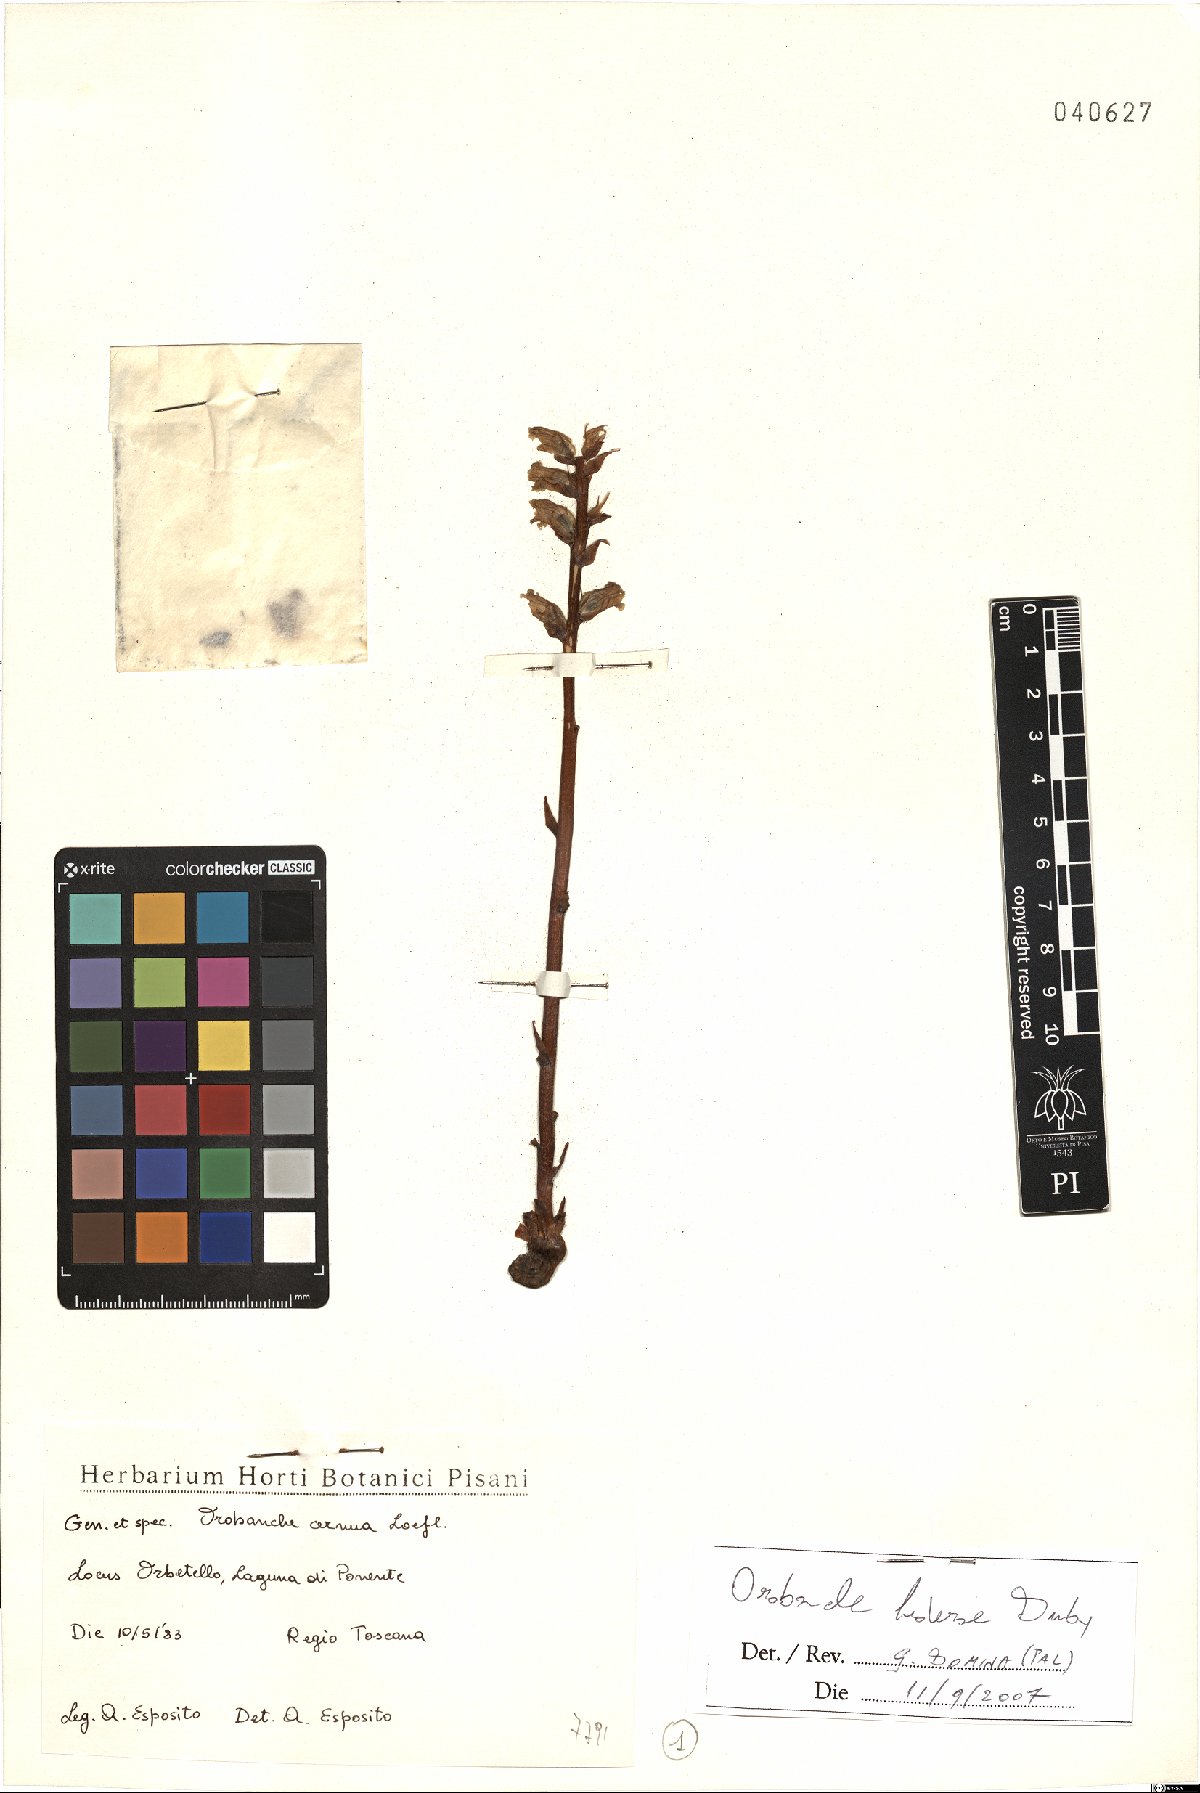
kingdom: Plantae
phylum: Tracheophyta
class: Magnoliopsida
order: Lamiales
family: Orobanchaceae
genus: Orobanche
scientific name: Orobanche hederae
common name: Ivy broomrape
